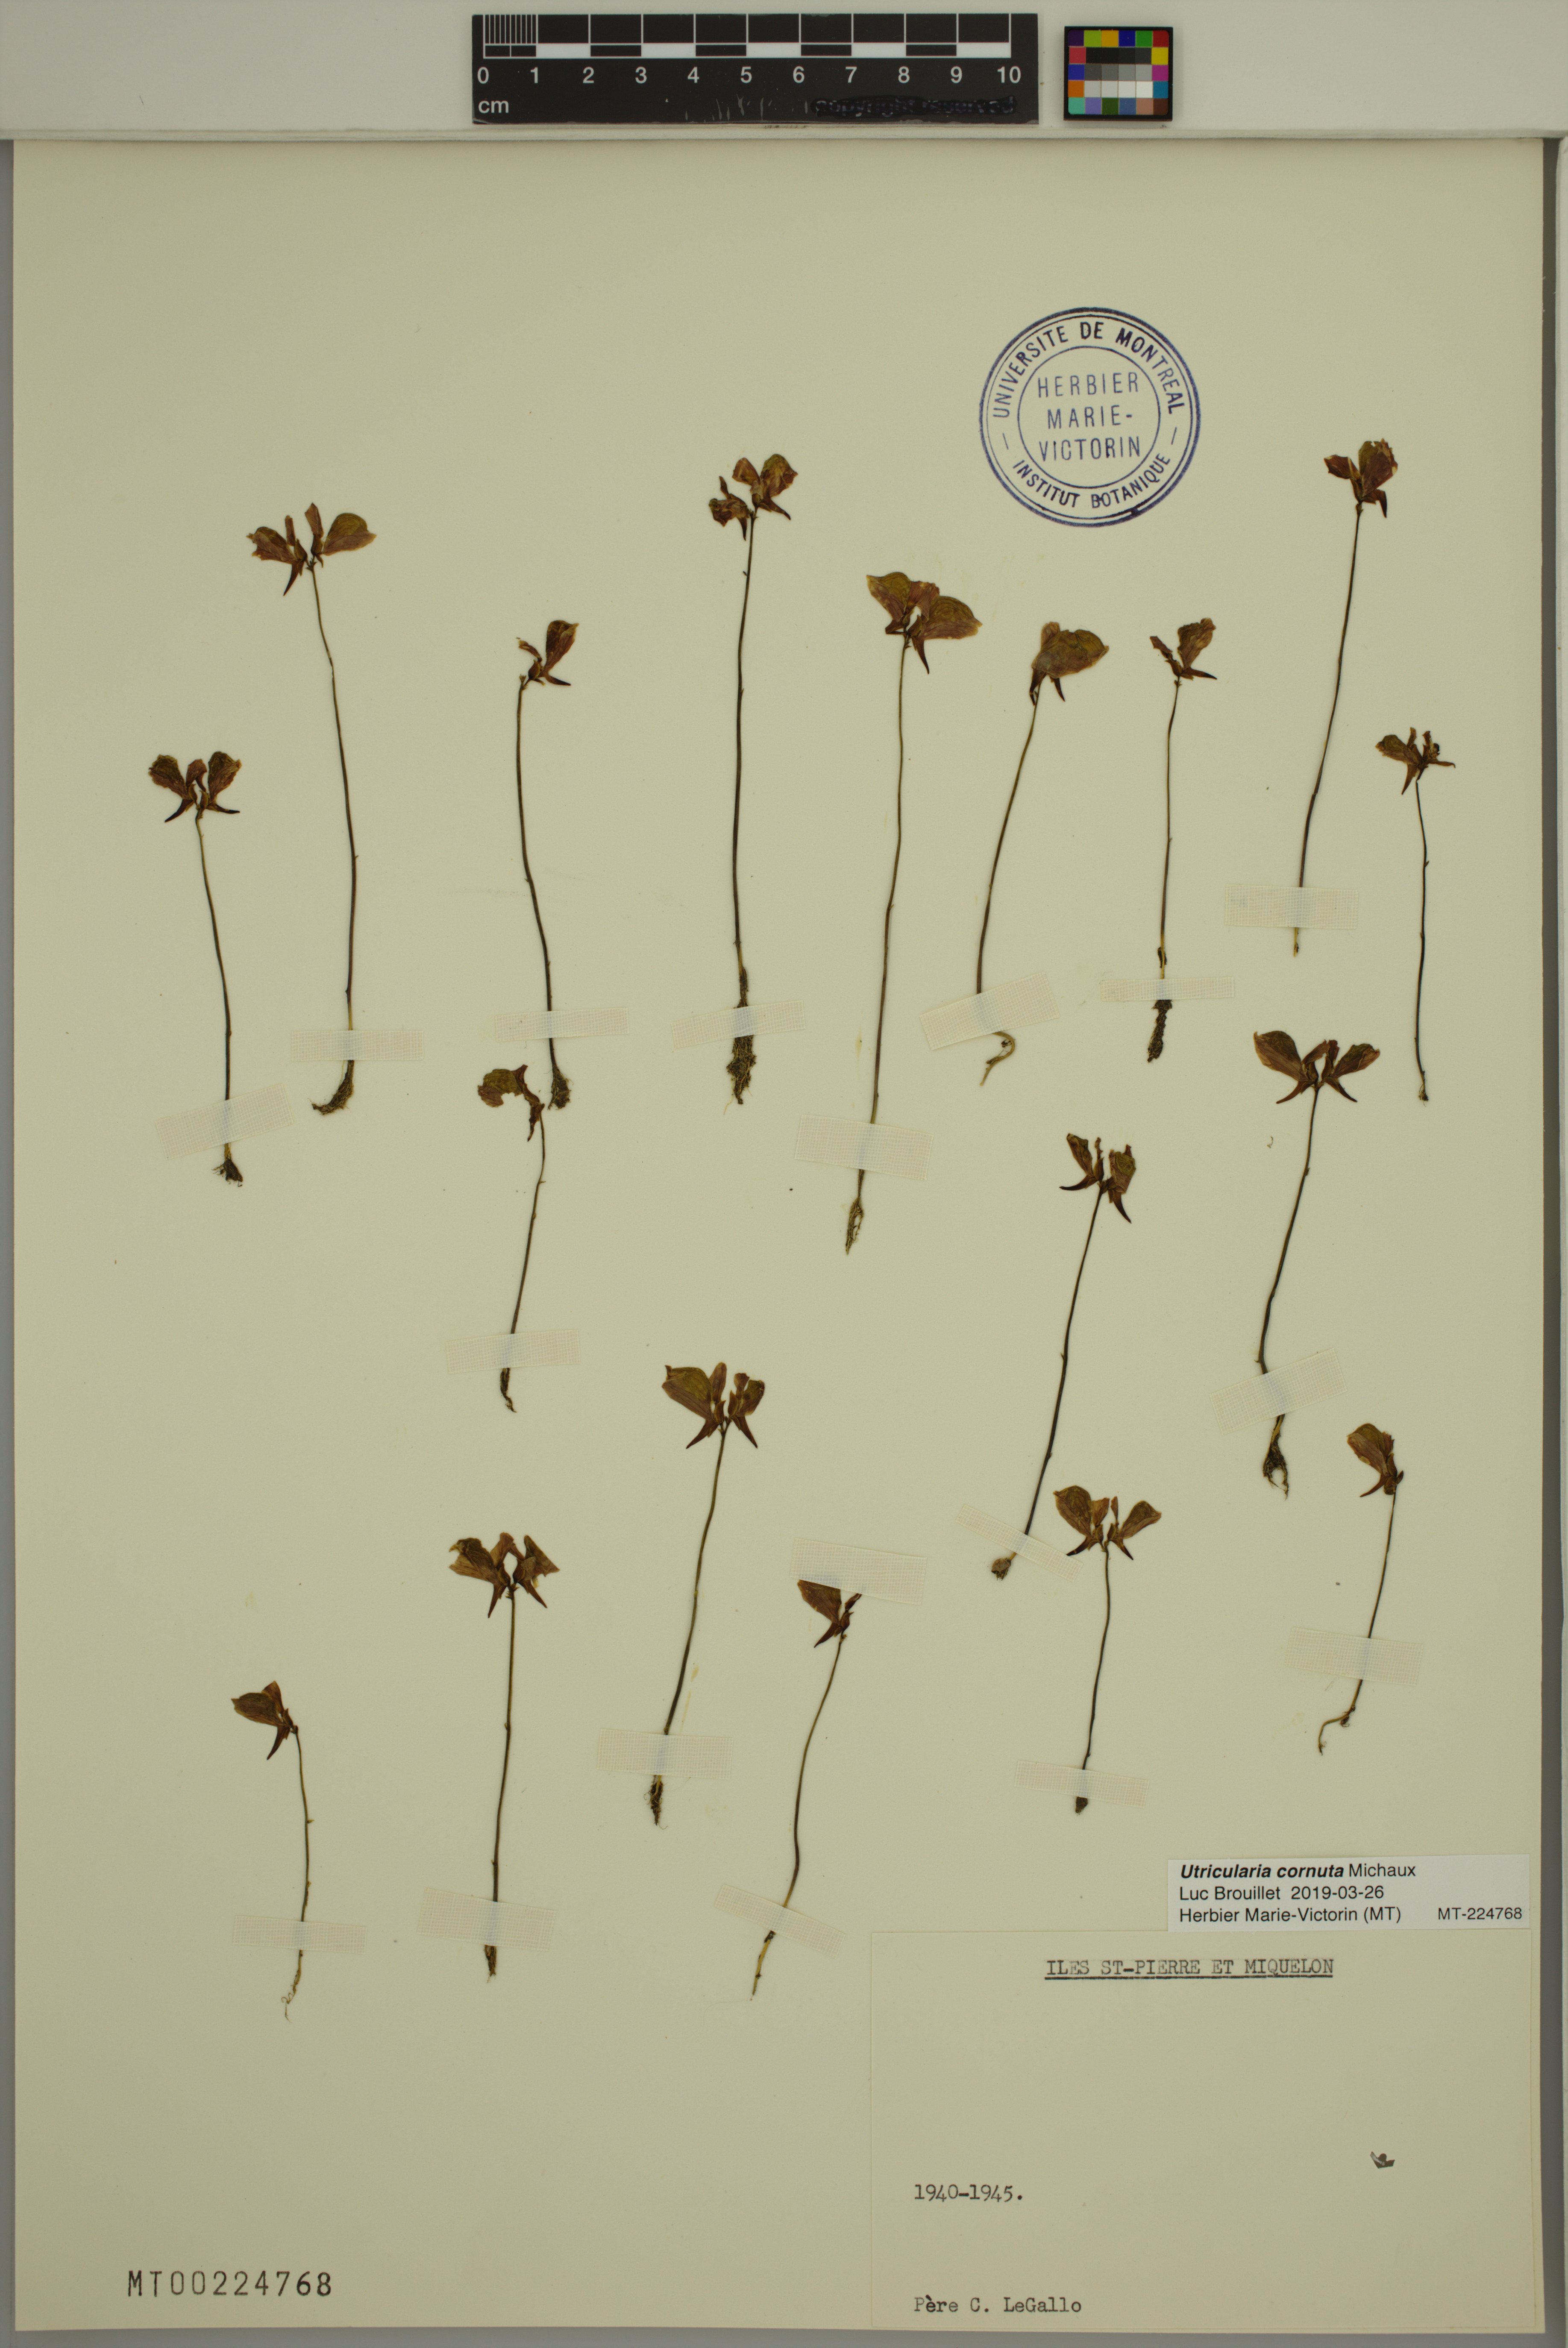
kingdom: Plantae
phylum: Tracheophyta
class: Magnoliopsida
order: Lamiales
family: Lentibulariaceae
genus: Utricularia
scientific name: Utricularia cornuta
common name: Horned bladderwort
